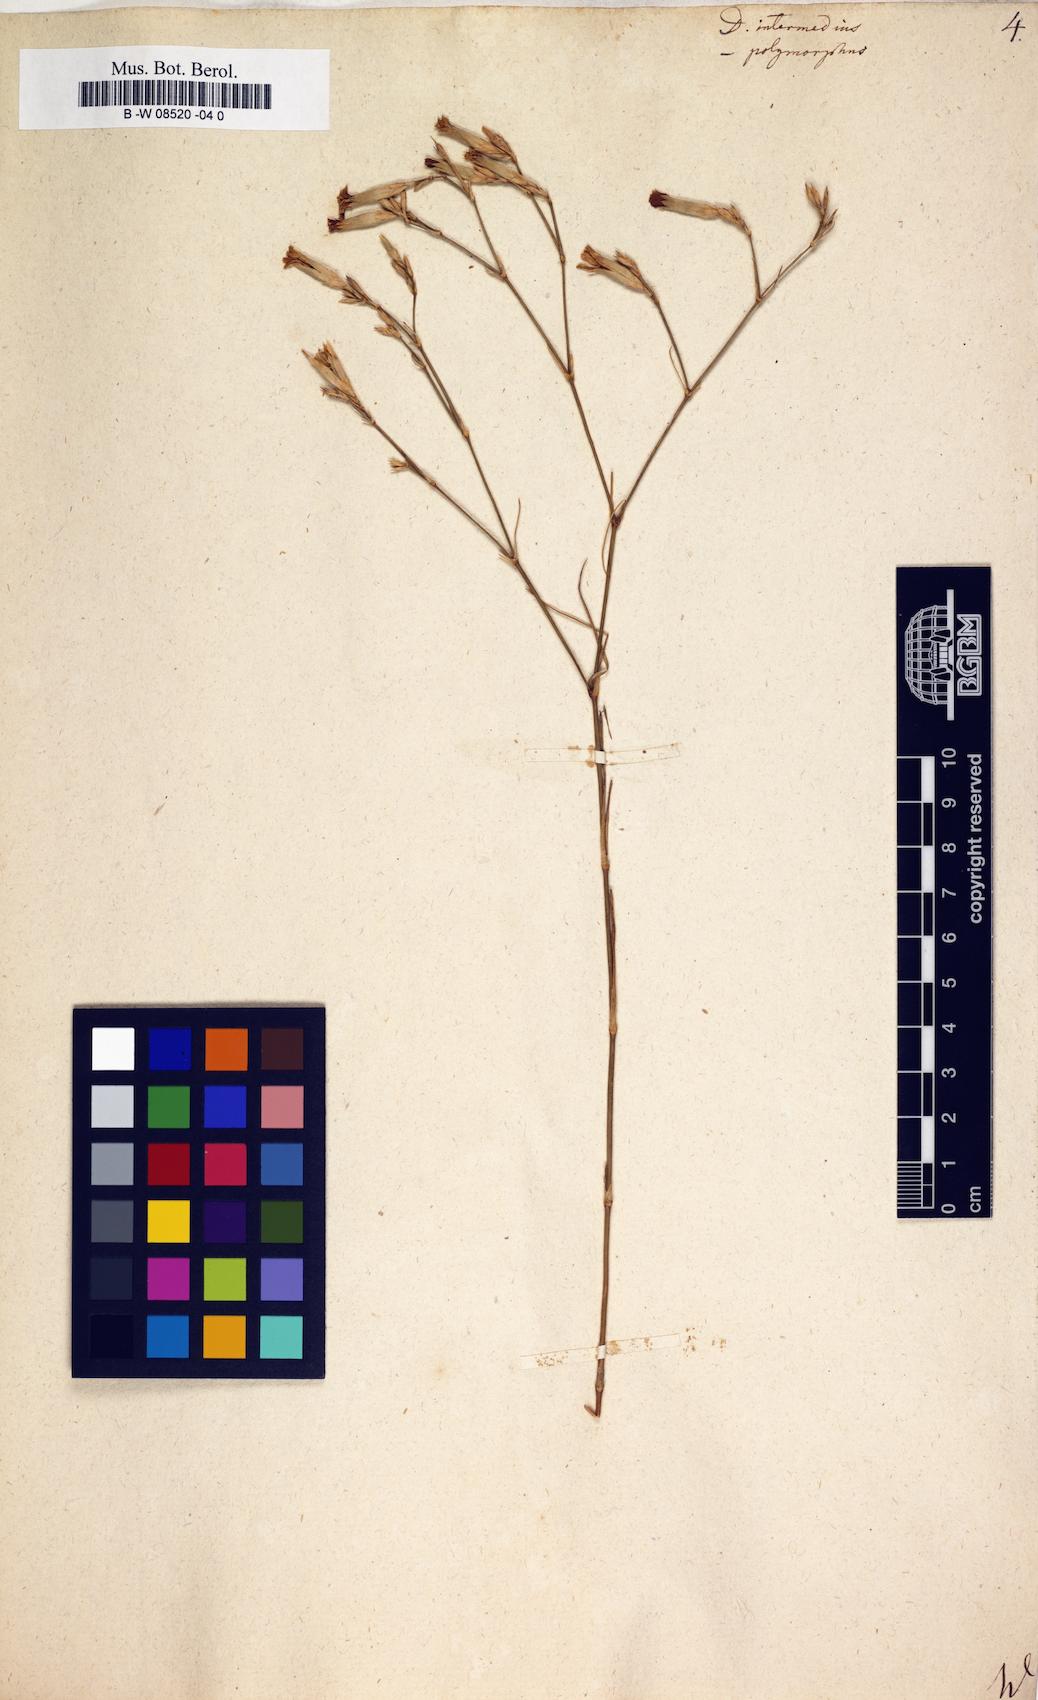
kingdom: Plantae
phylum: Tracheophyta
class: Magnoliopsida
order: Caryophyllales
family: Caryophyllaceae
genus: Dianthus
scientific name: Dianthus
